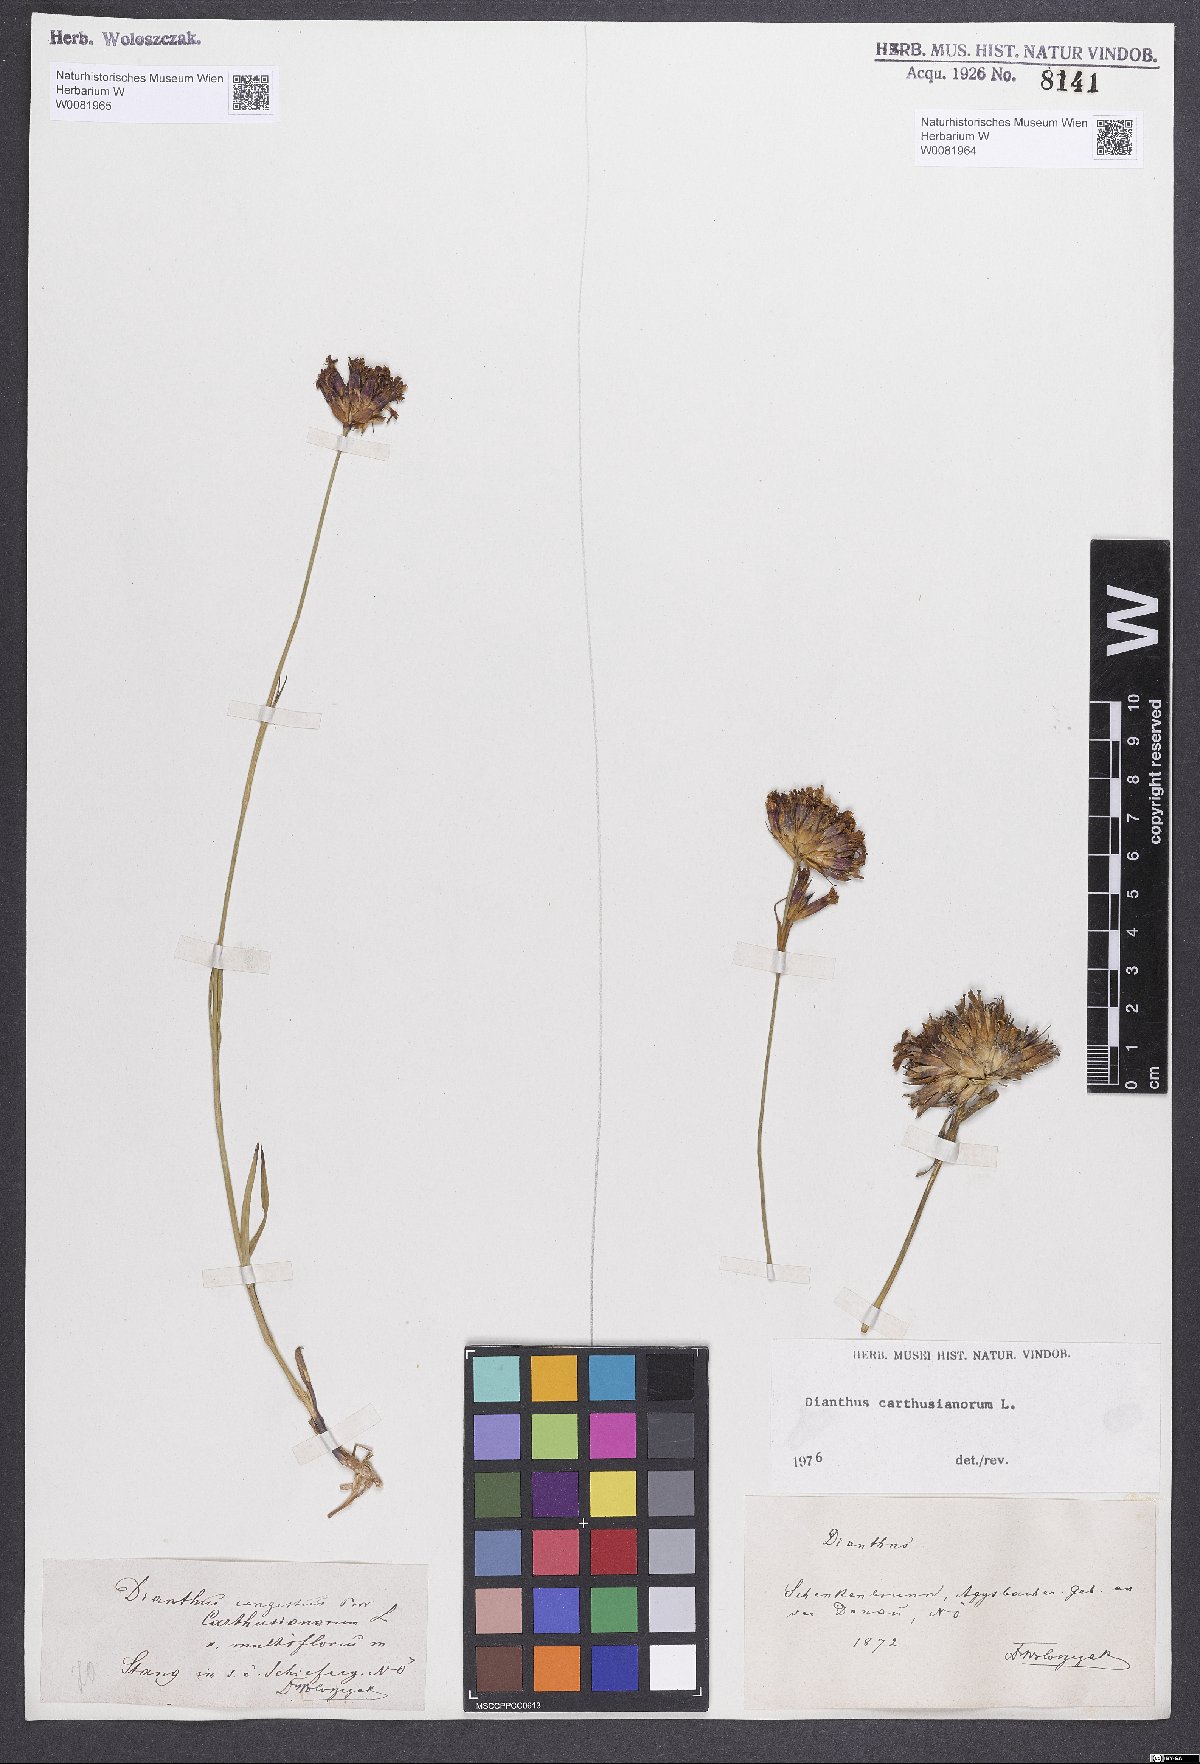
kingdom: Plantae
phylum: Tracheophyta
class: Magnoliopsida
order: Caryophyllales
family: Caryophyllaceae
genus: Dianthus
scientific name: Dianthus carthusianorum
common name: Carthusian pink
